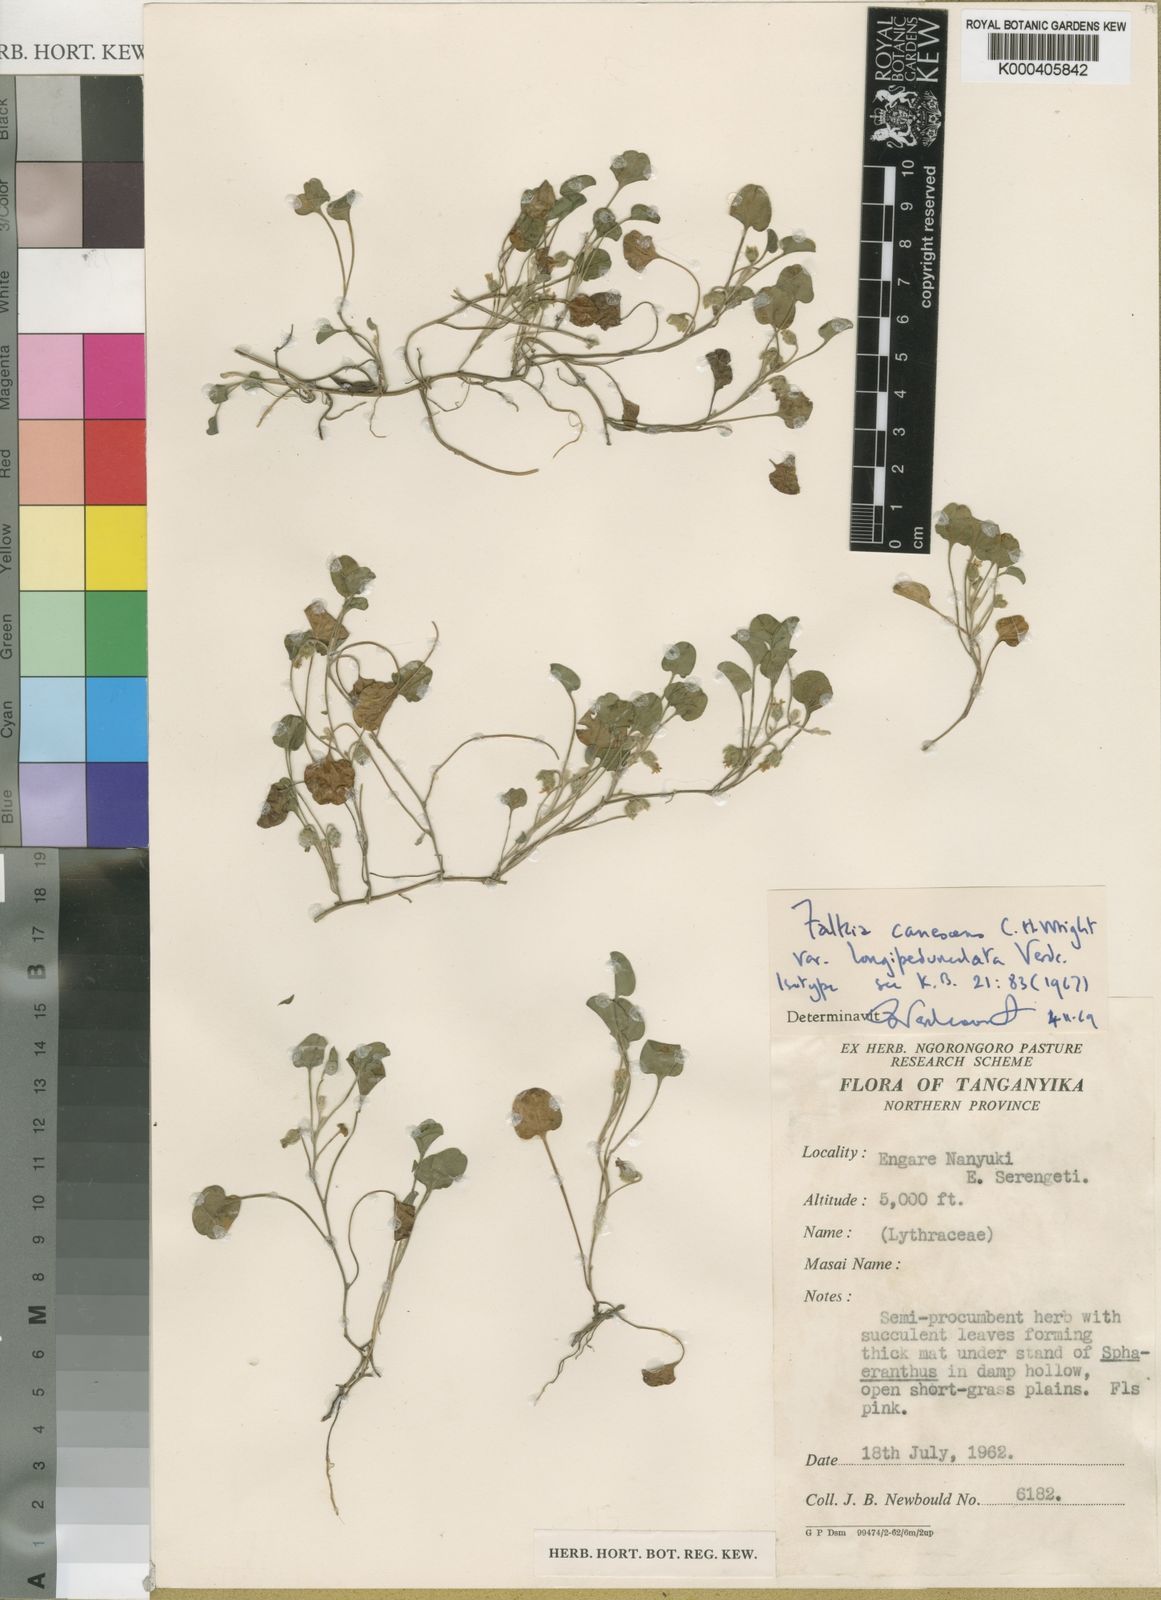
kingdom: Plantae
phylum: Tracheophyta
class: Magnoliopsida
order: Solanales
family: Convolvulaceae
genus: Falkia
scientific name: Falkia canescens
